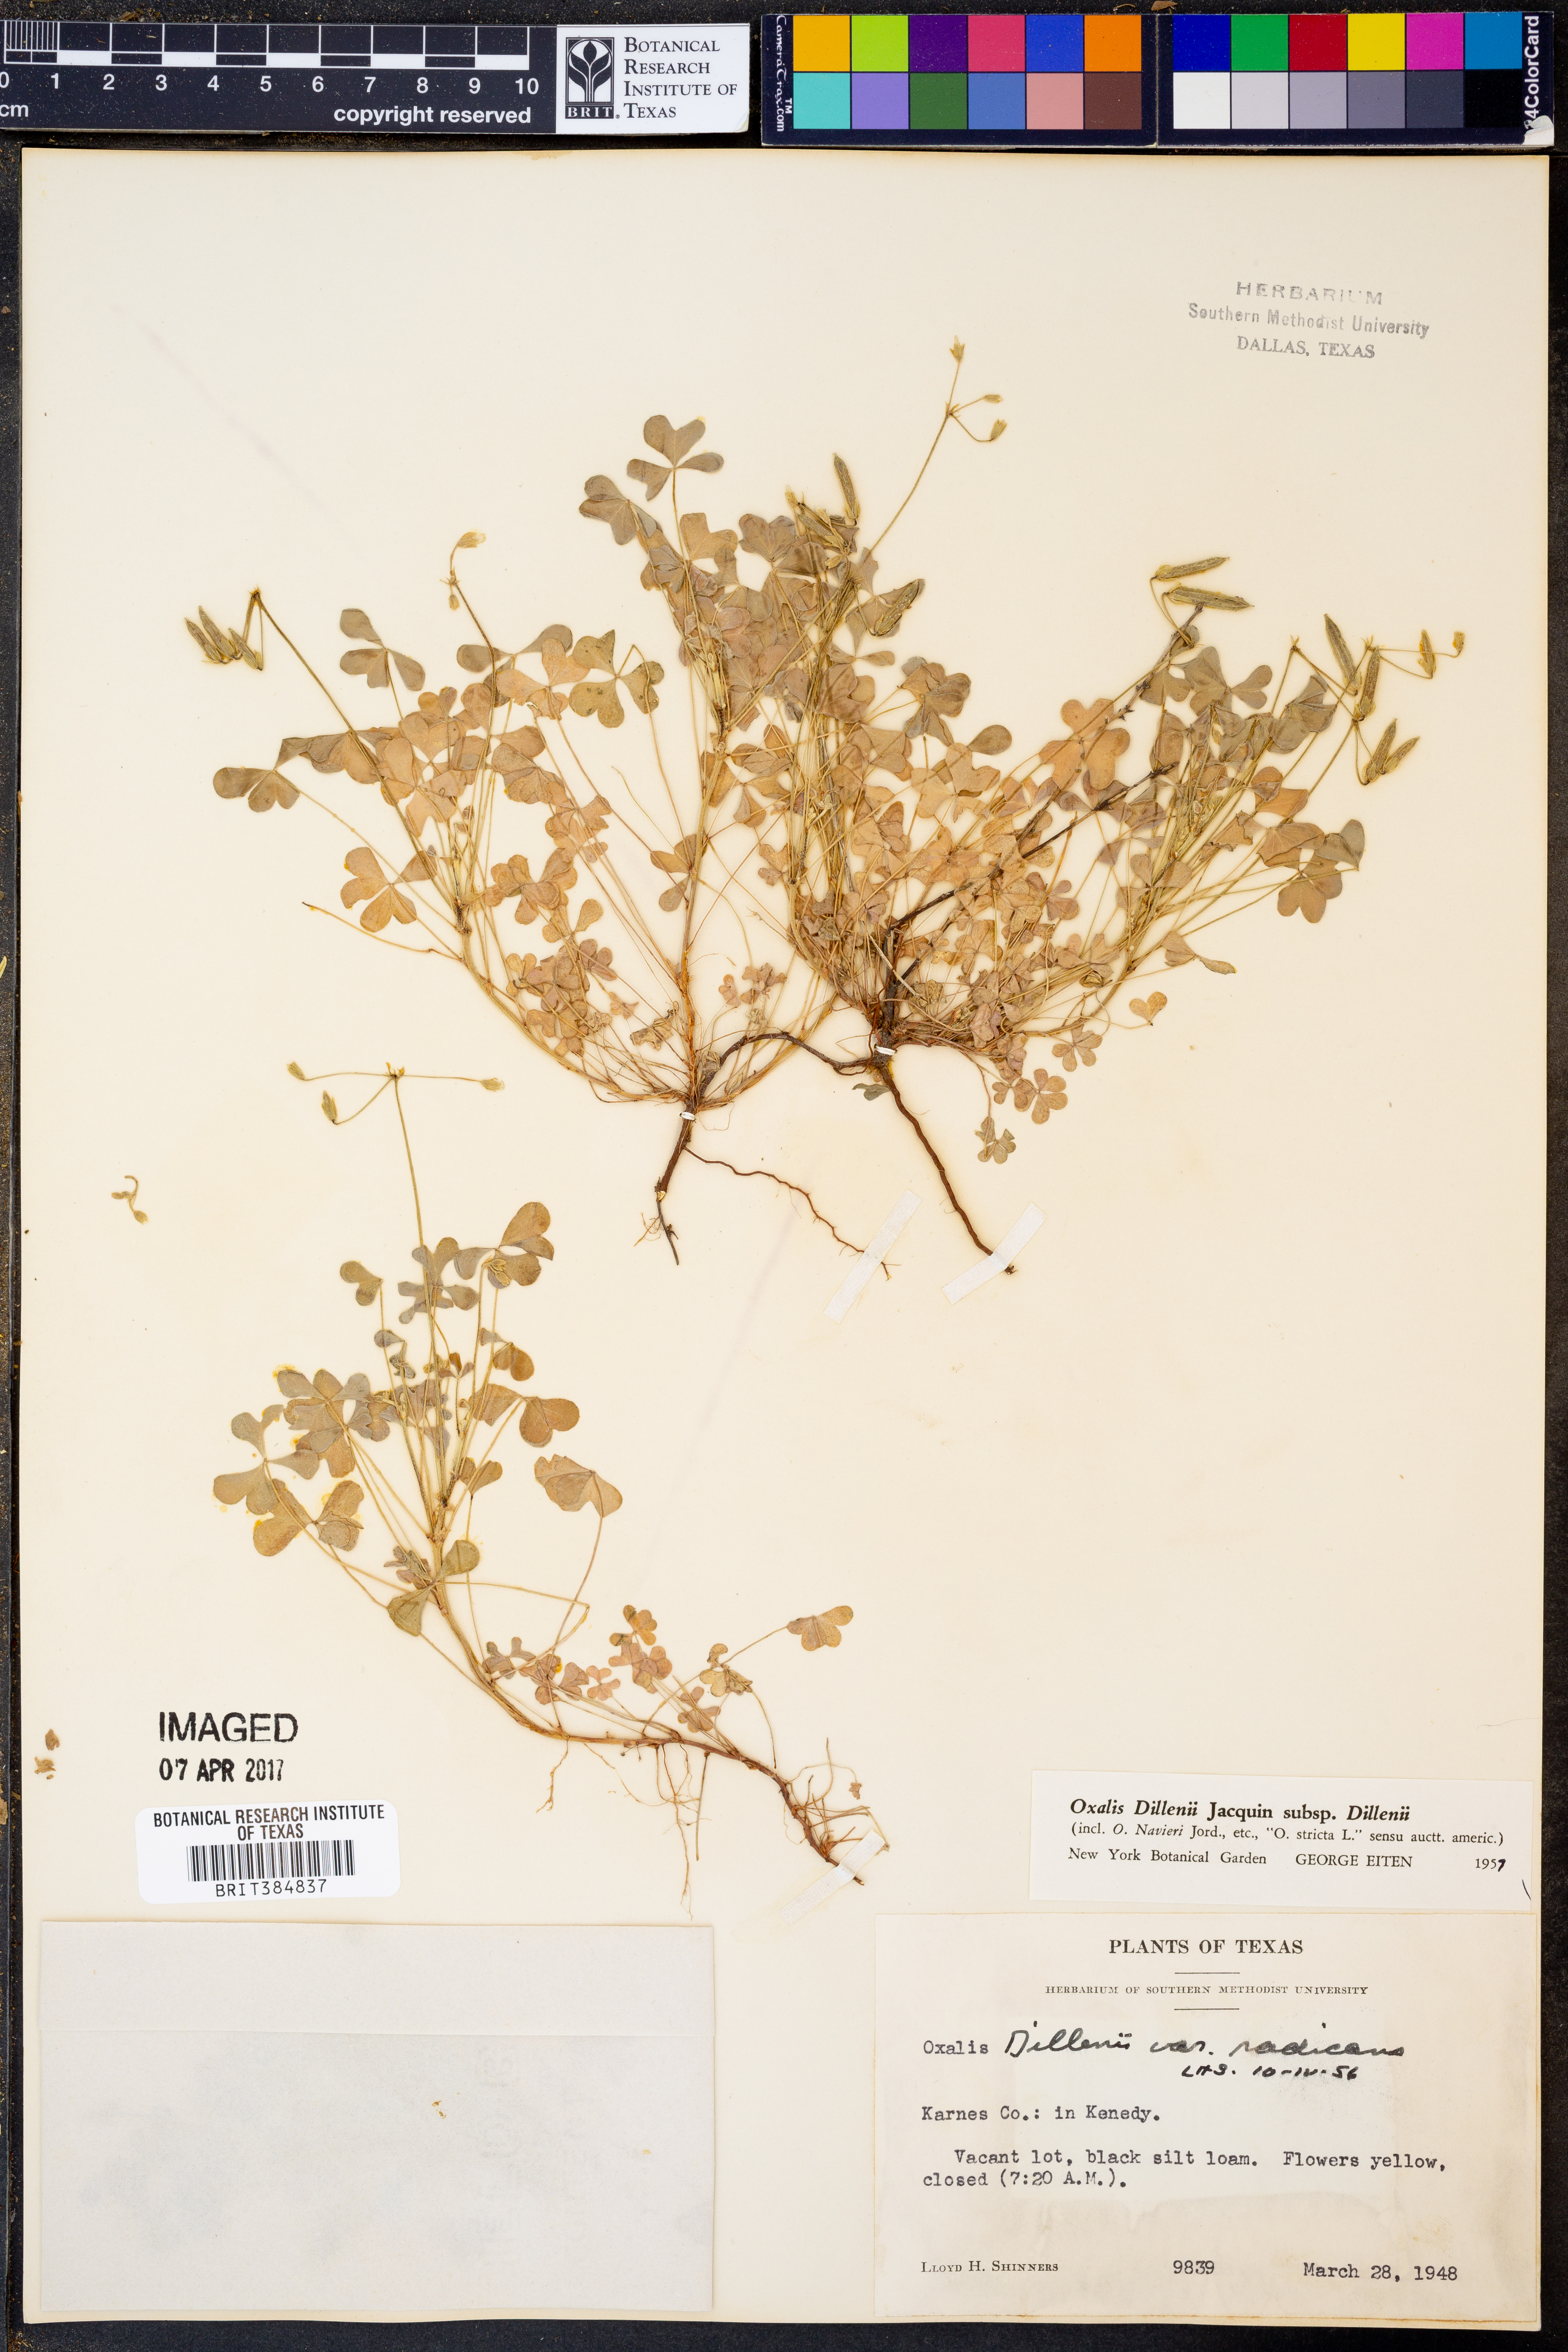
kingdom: Plantae
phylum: Tracheophyta
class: Magnoliopsida
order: Oxalidales
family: Oxalidaceae
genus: Oxalis
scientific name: Oxalis dillenii
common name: Sussex yellow-sorrel
